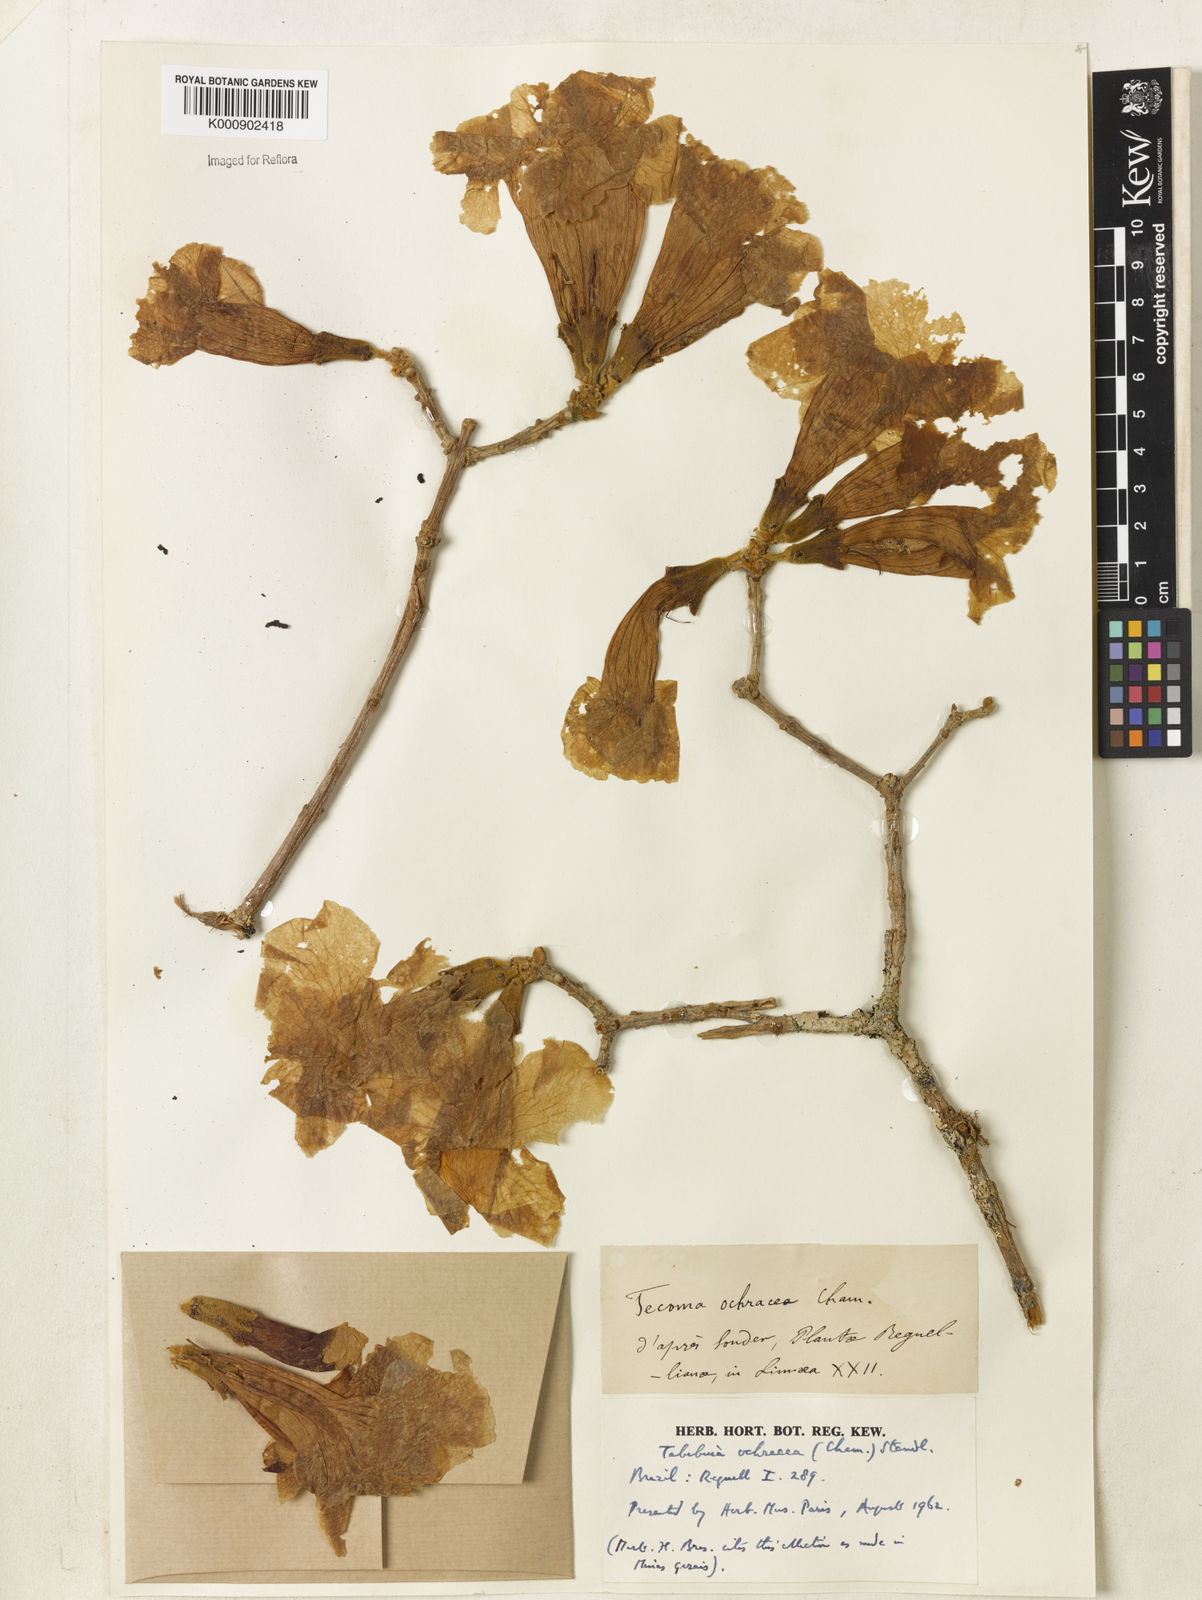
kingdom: Plantae
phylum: Tracheophyta
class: Magnoliopsida
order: Lamiales
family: Bignoniaceae
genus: Handroanthus
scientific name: Handroanthus ochraceus
